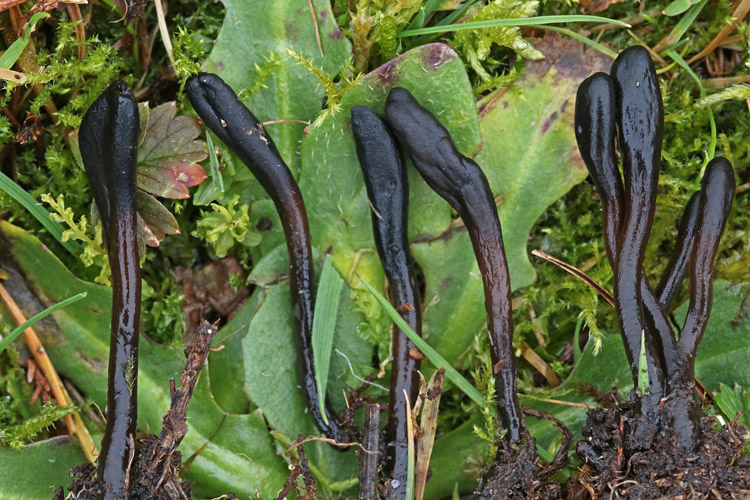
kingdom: Fungi
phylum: Ascomycota
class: Geoglossomycetes
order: Geoglossales
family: Geoglossaceae
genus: Glutinoglossum
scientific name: Glutinoglossum glutinosum
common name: slimet jordtunge
